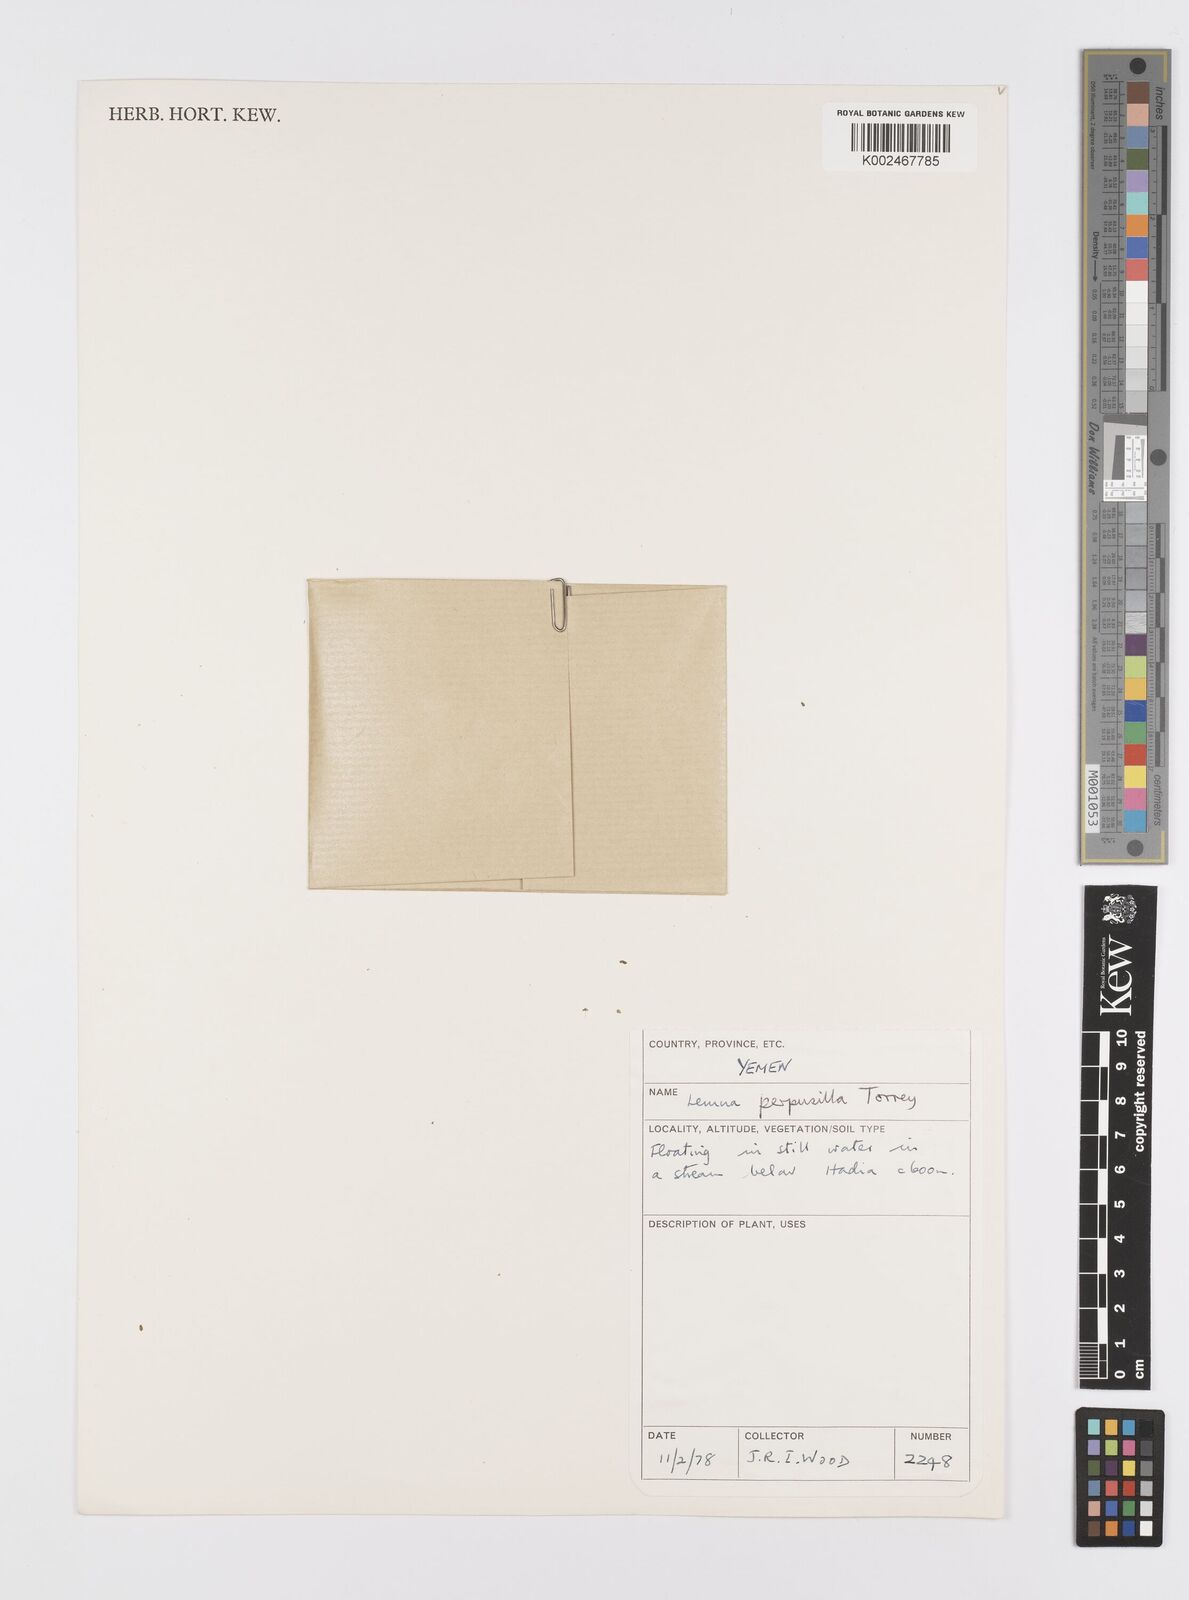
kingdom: Plantae
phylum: Tracheophyta
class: Liliopsida
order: Alismatales
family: Araceae
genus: Lemna
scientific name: Lemna perpusilla
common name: Duckweed
